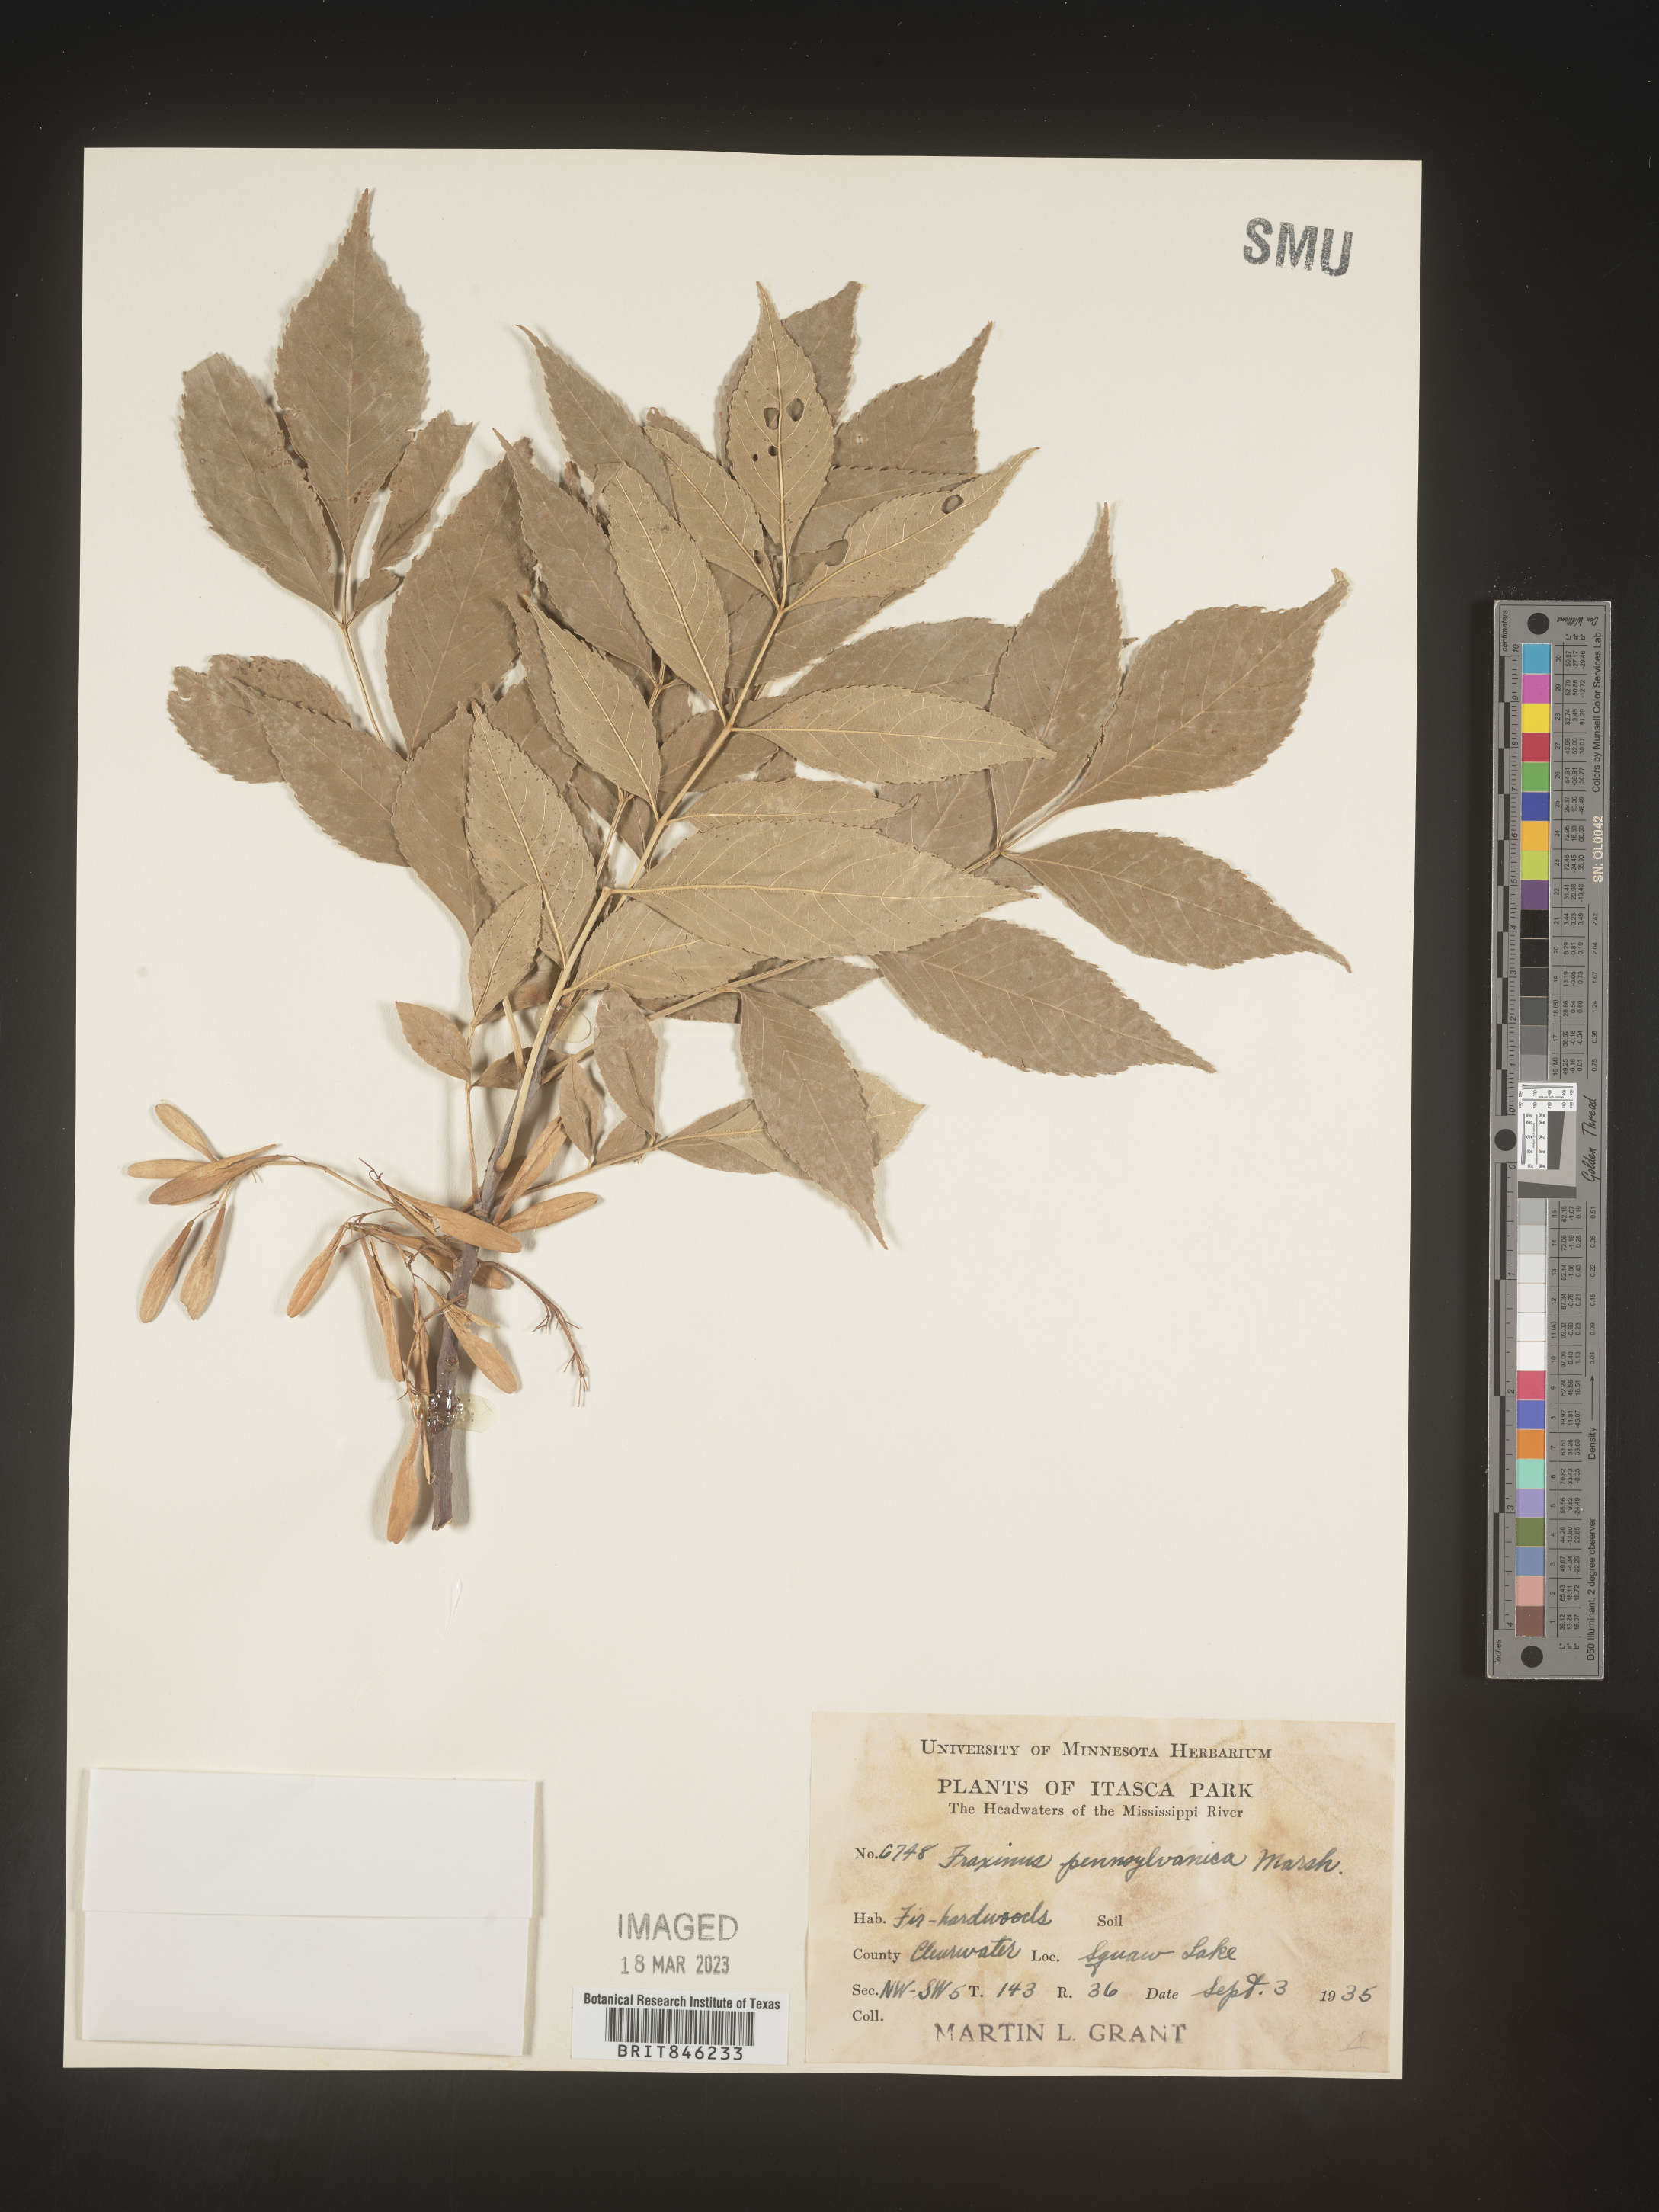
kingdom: Plantae
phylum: Tracheophyta
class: Magnoliopsida
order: Lamiales
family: Oleaceae
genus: Fraxinus
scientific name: Fraxinus pennsylvanica
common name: Green ash
